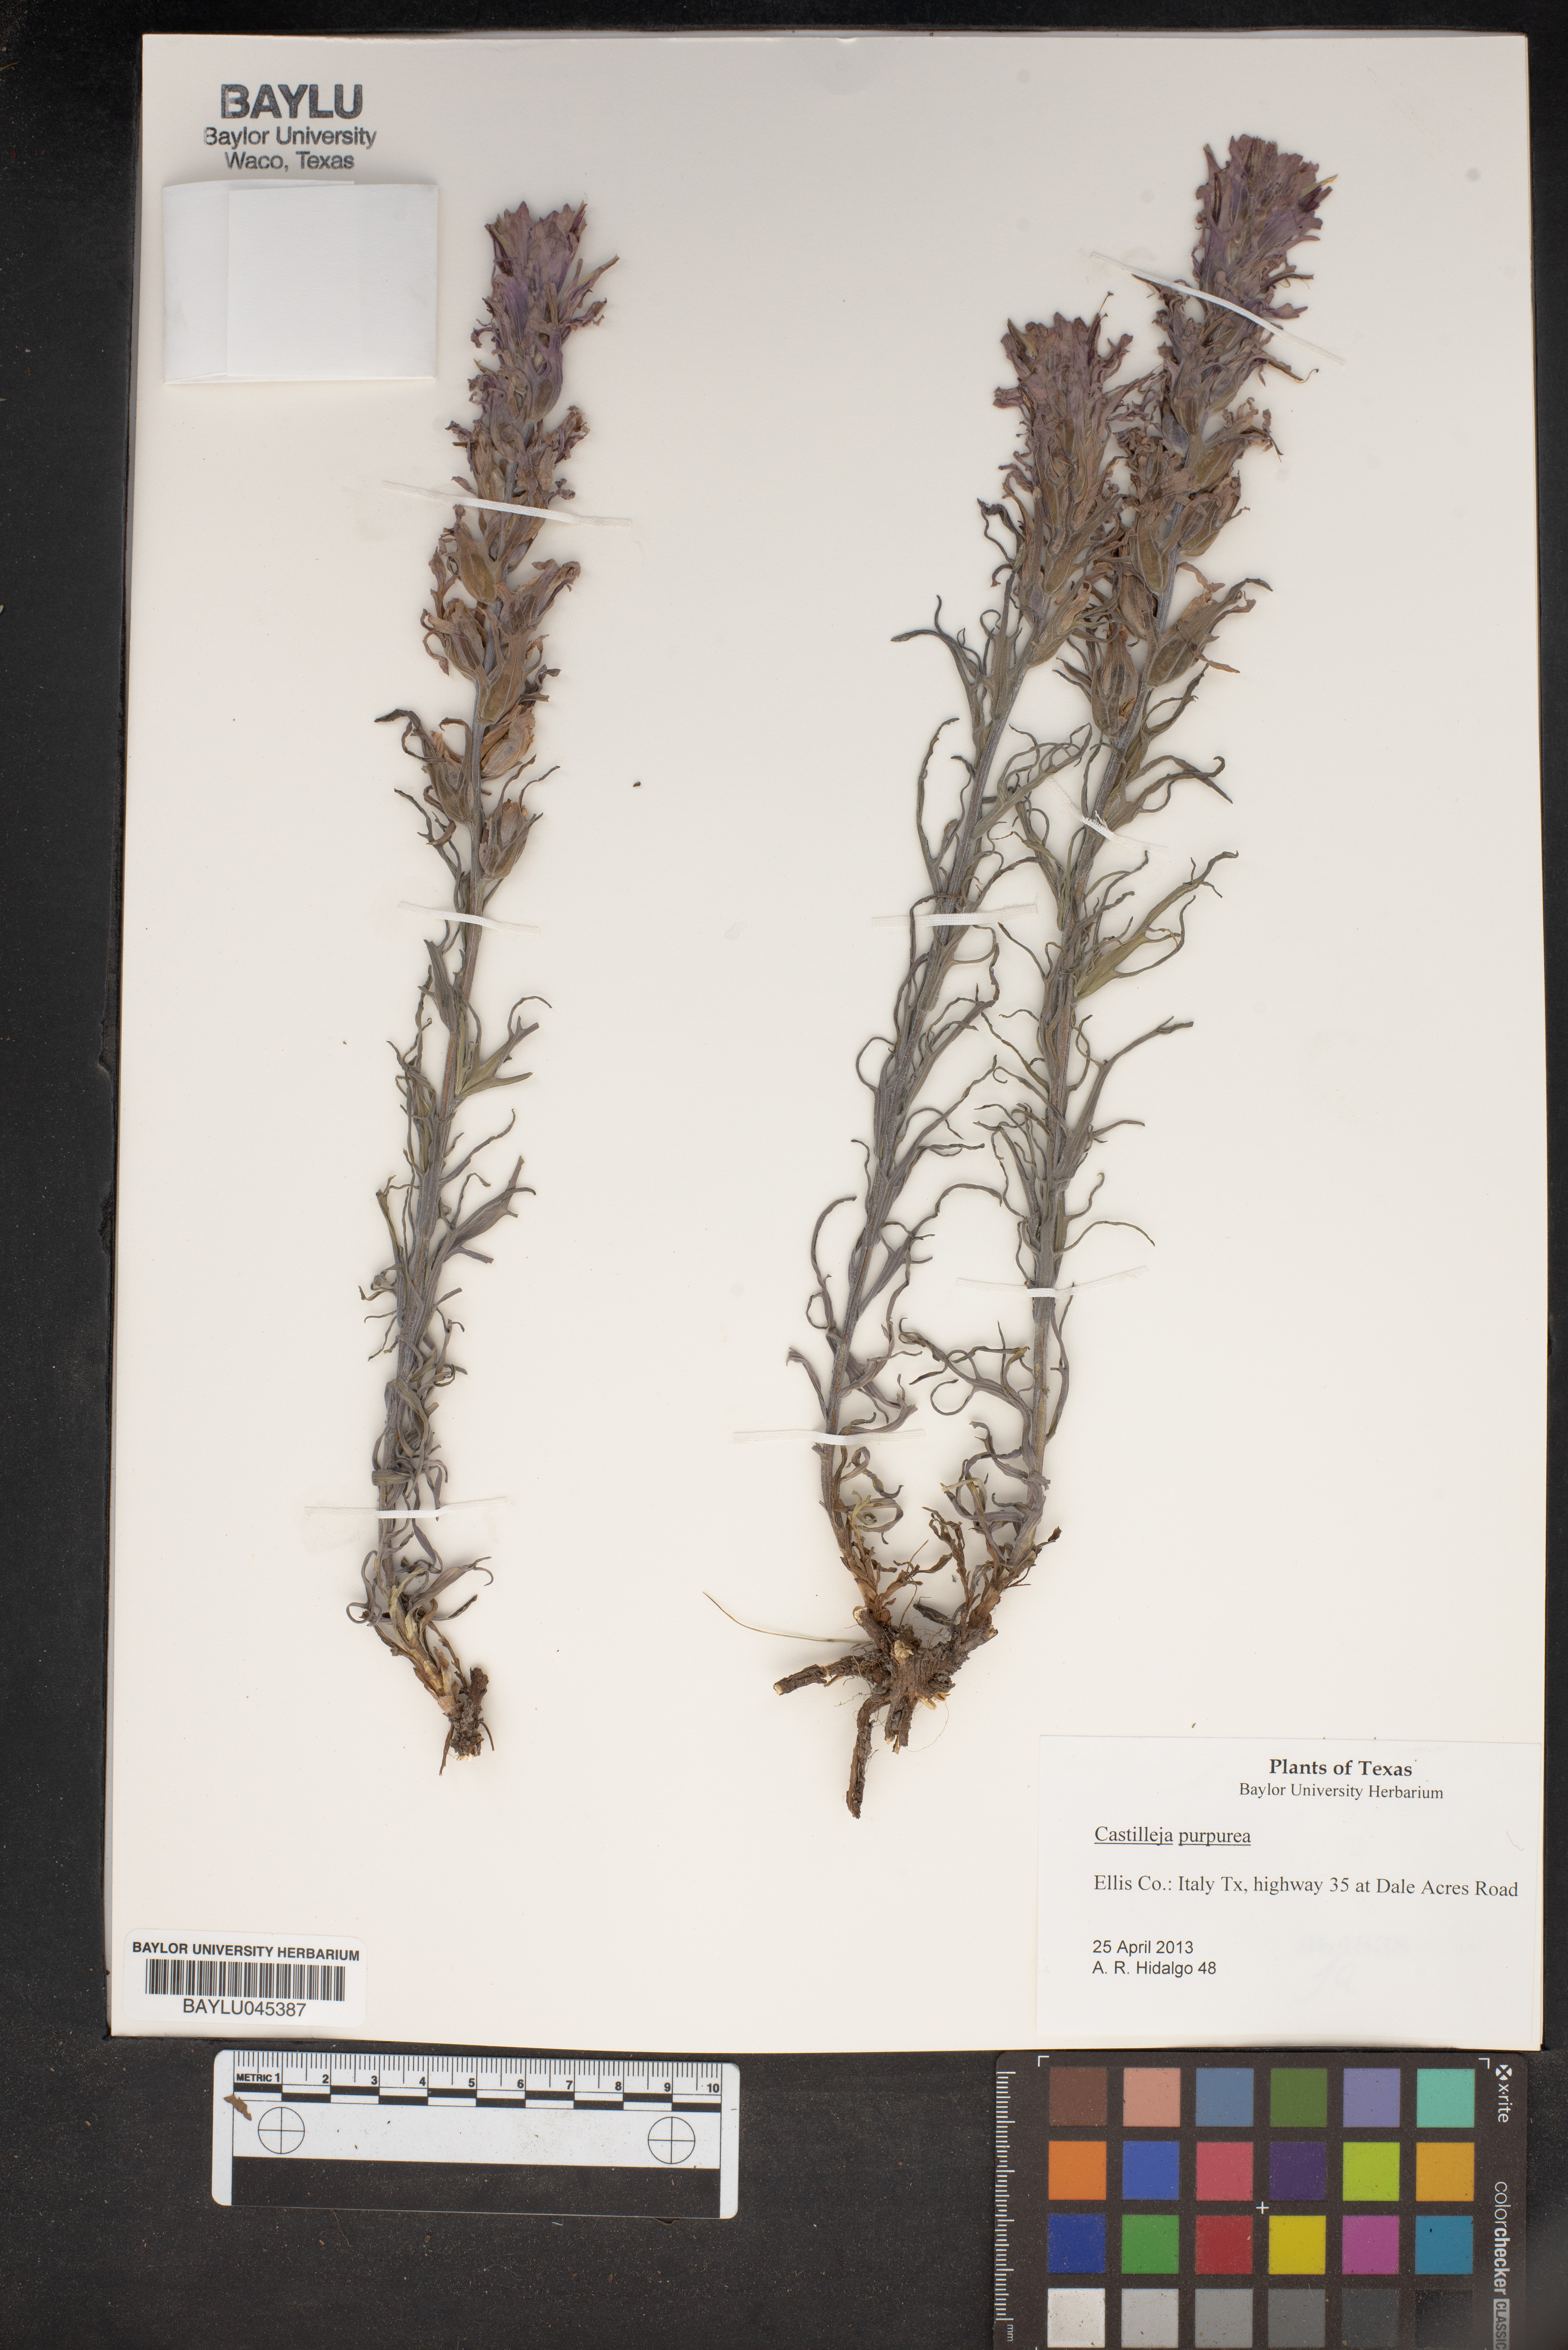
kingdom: Plantae
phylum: Tracheophyta
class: Magnoliopsida
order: Lamiales
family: Orobanchaceae
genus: Castilleja
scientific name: Castilleja purpurea
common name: Plains paintbrush
